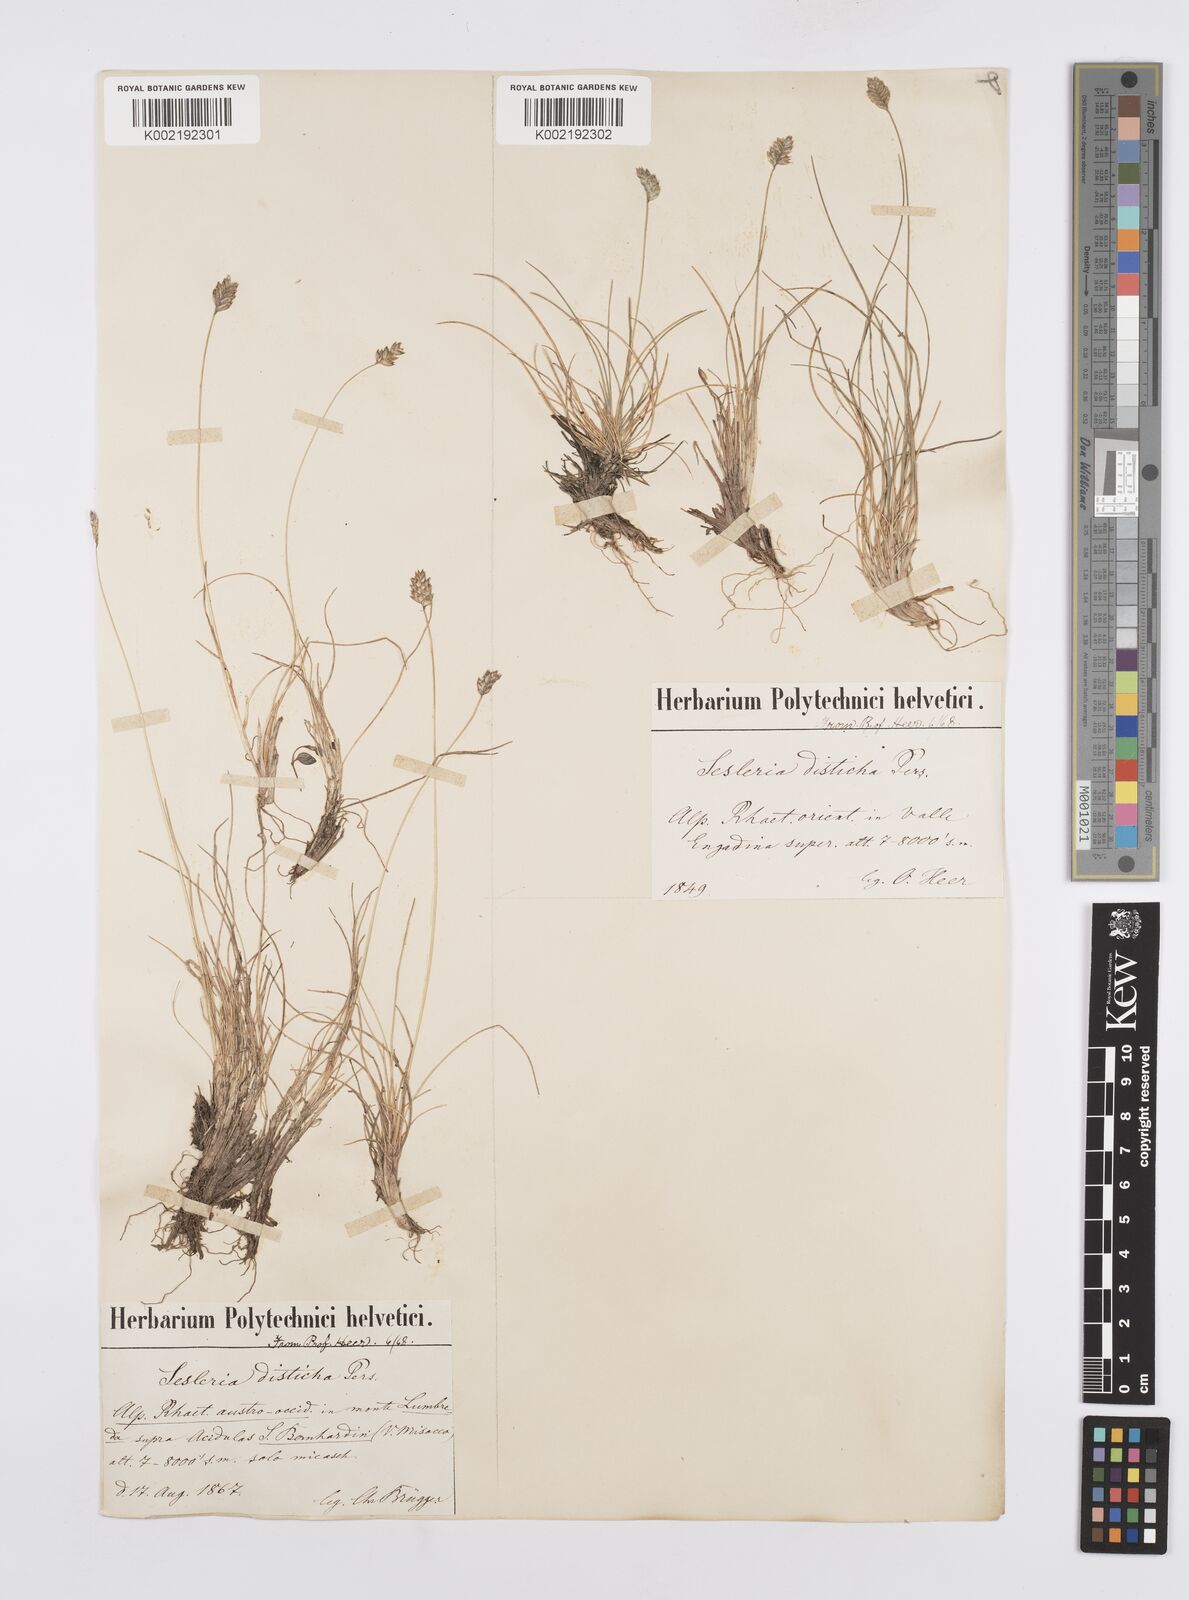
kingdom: Plantae
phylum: Tracheophyta
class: Liliopsida
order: Poales
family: Poaceae
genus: Oreochloa
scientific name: Oreochloa disticha
